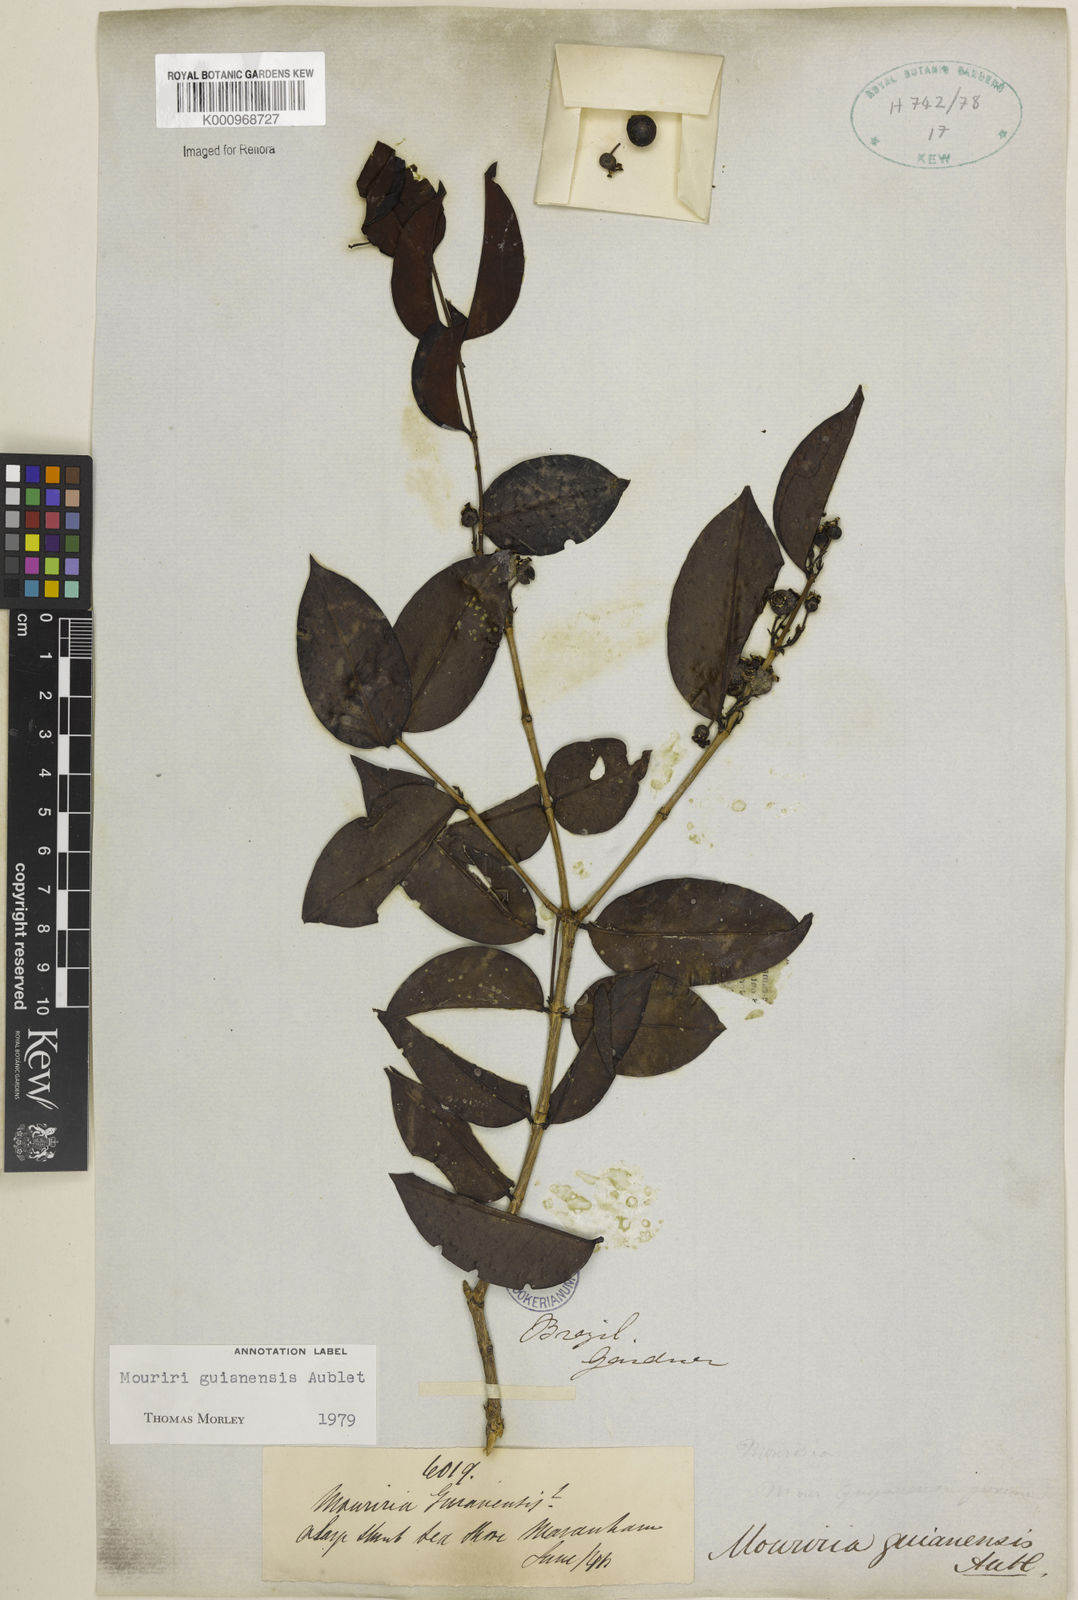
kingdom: Plantae
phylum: Tracheophyta
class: Magnoliopsida
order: Myrtales
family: Melastomataceae
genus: Mouriri
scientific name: Mouriri guianensis
